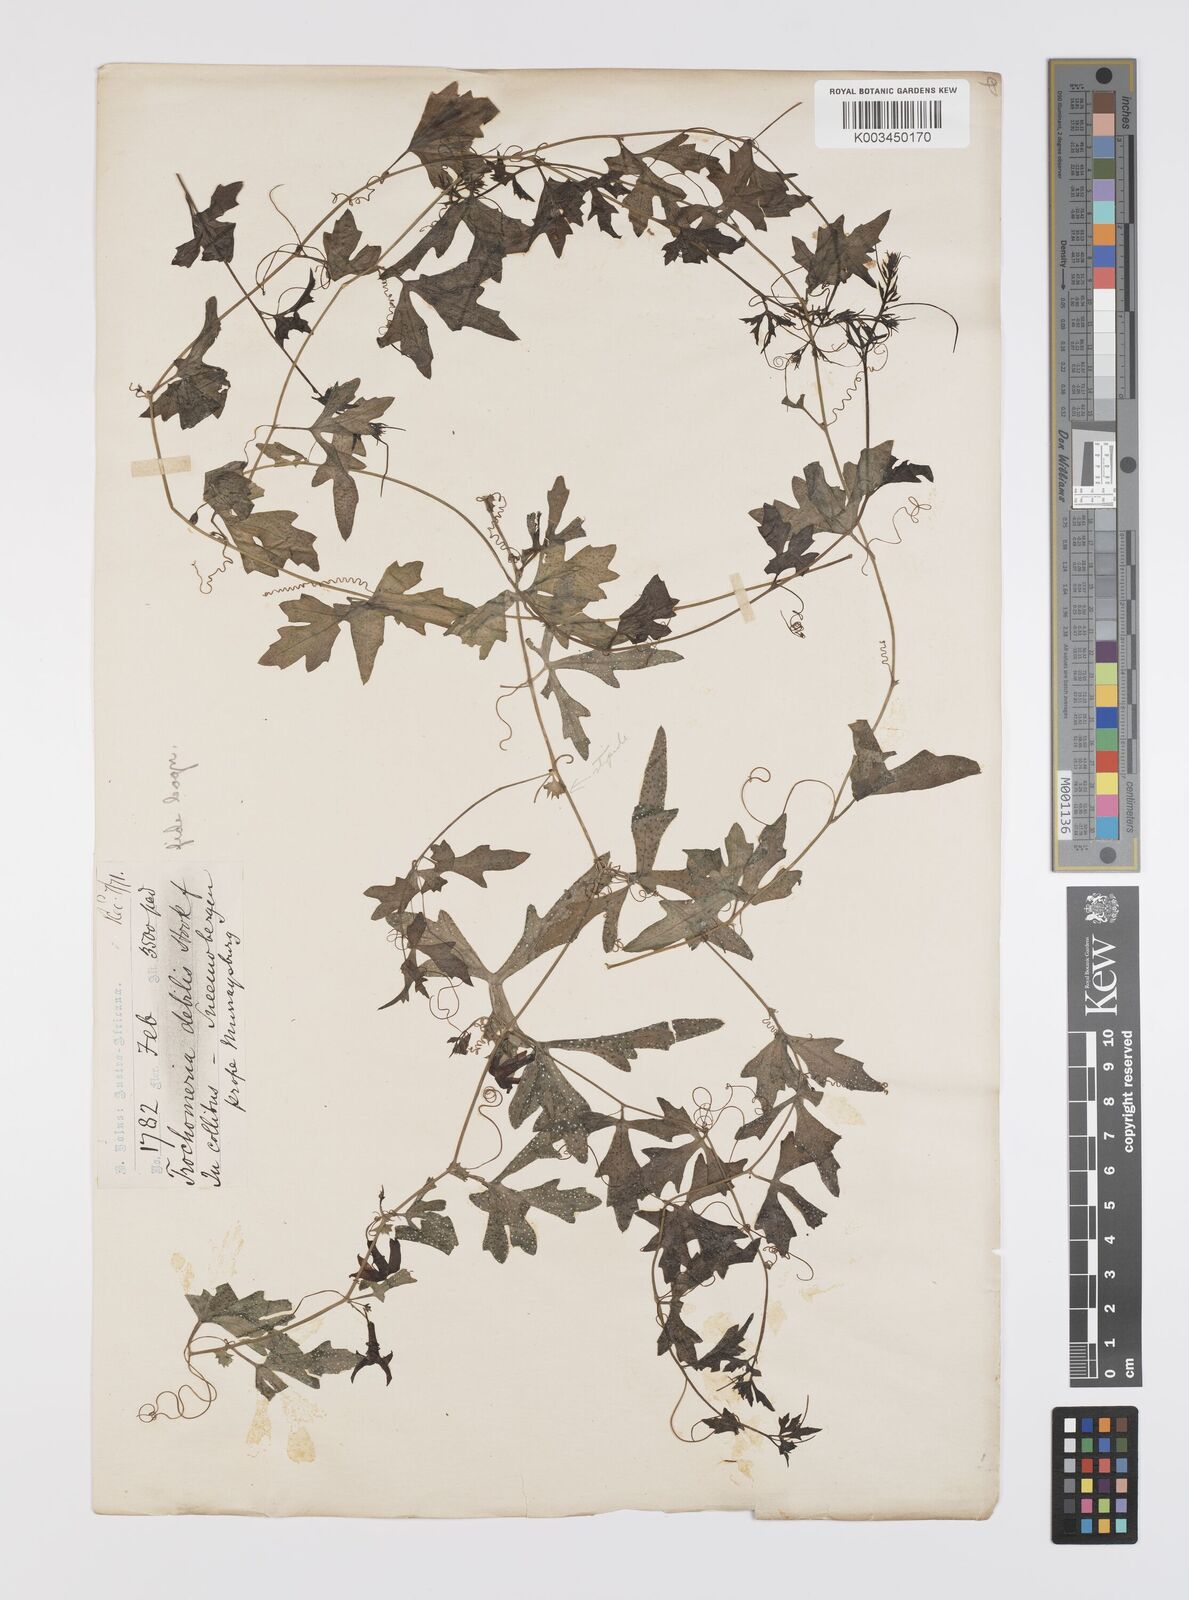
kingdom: Plantae
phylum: Tracheophyta
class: Magnoliopsida
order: Cucurbitales
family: Cucurbitaceae
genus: Trochomeria
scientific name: Trochomeria debilis
